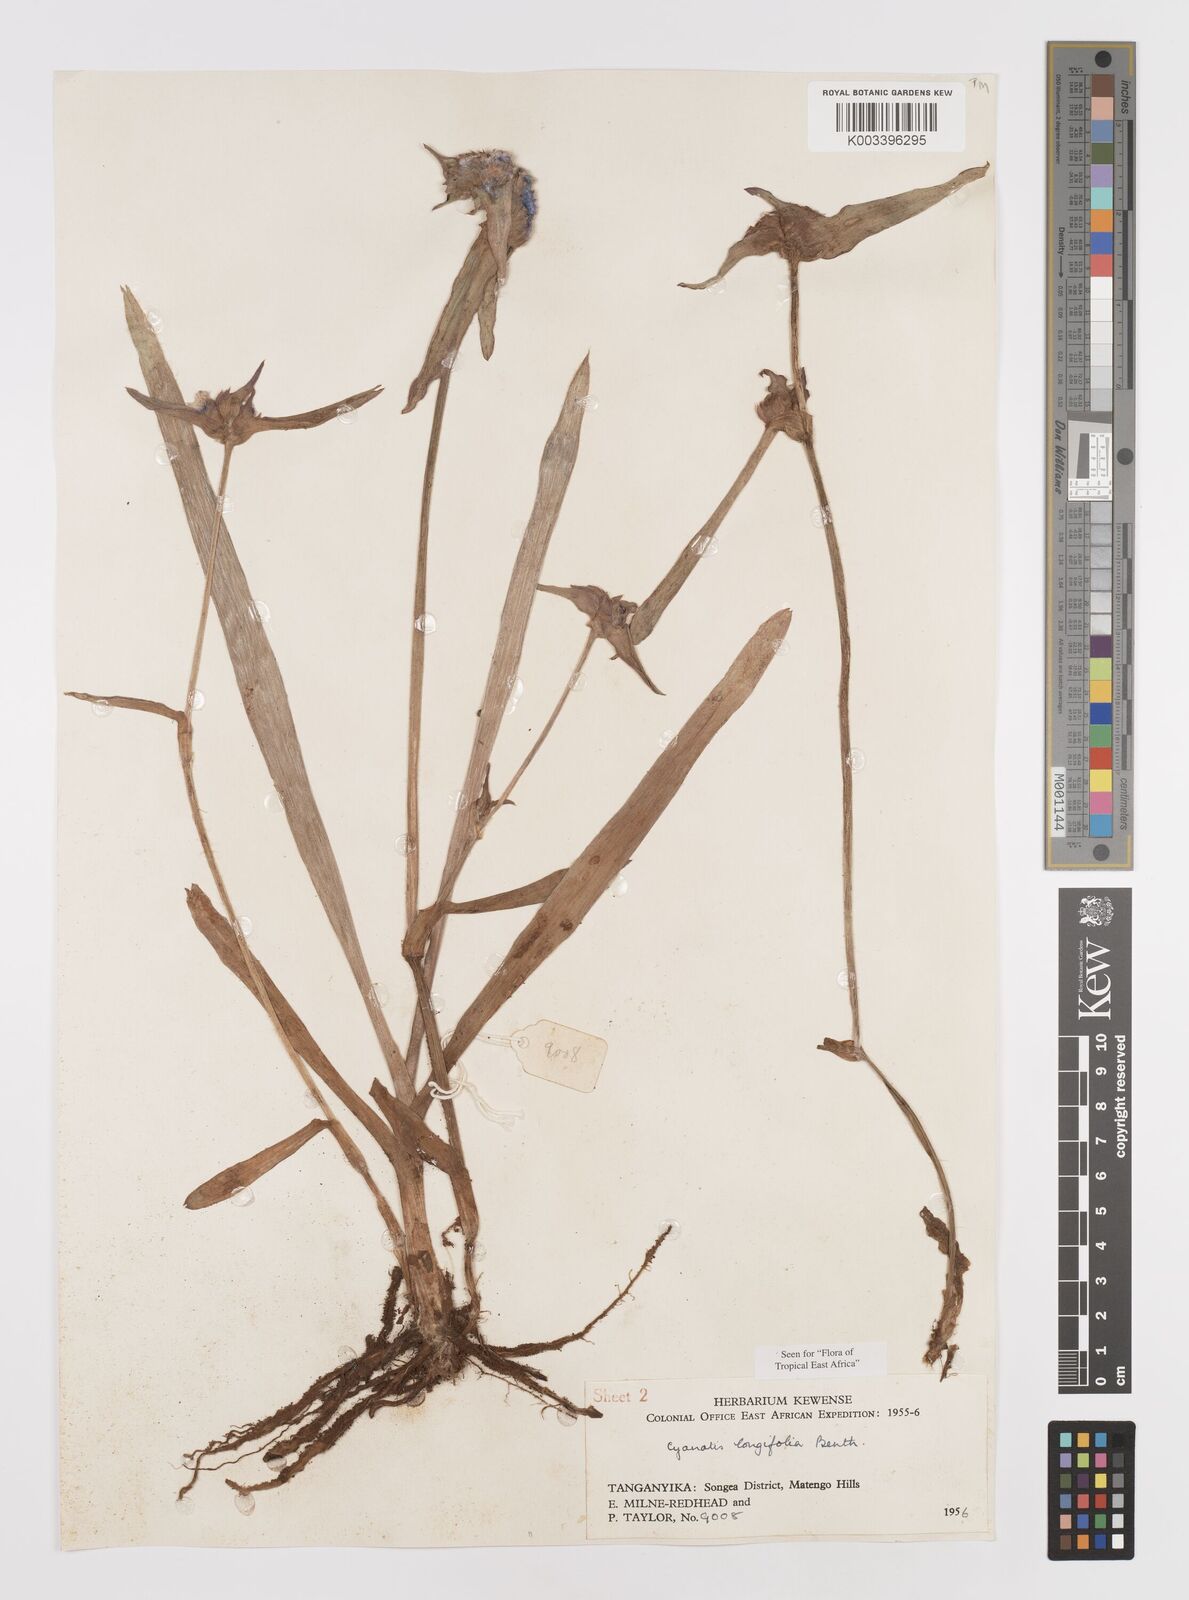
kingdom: Plantae
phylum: Tracheophyta
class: Liliopsida
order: Commelinales
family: Commelinaceae
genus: Cyanotis
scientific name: Cyanotis longifolia
